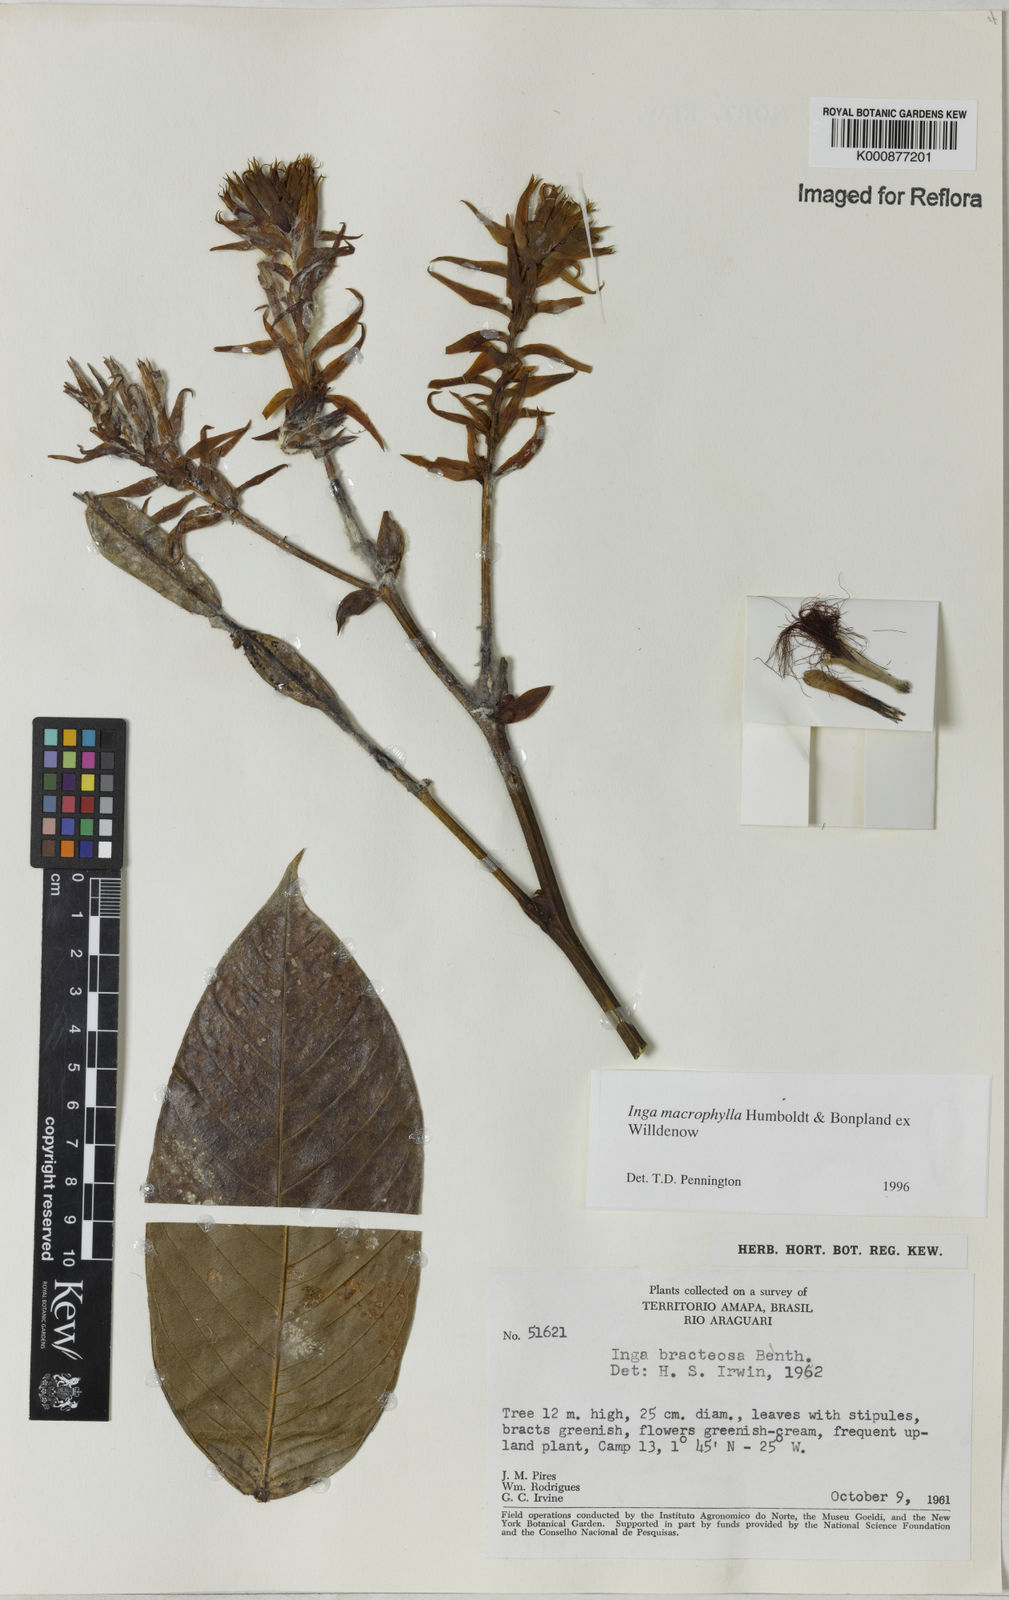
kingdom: Plantae
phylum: Tracheophyta
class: Magnoliopsida
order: Fabales
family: Fabaceae
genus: Inga
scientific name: Inga macrophylla
